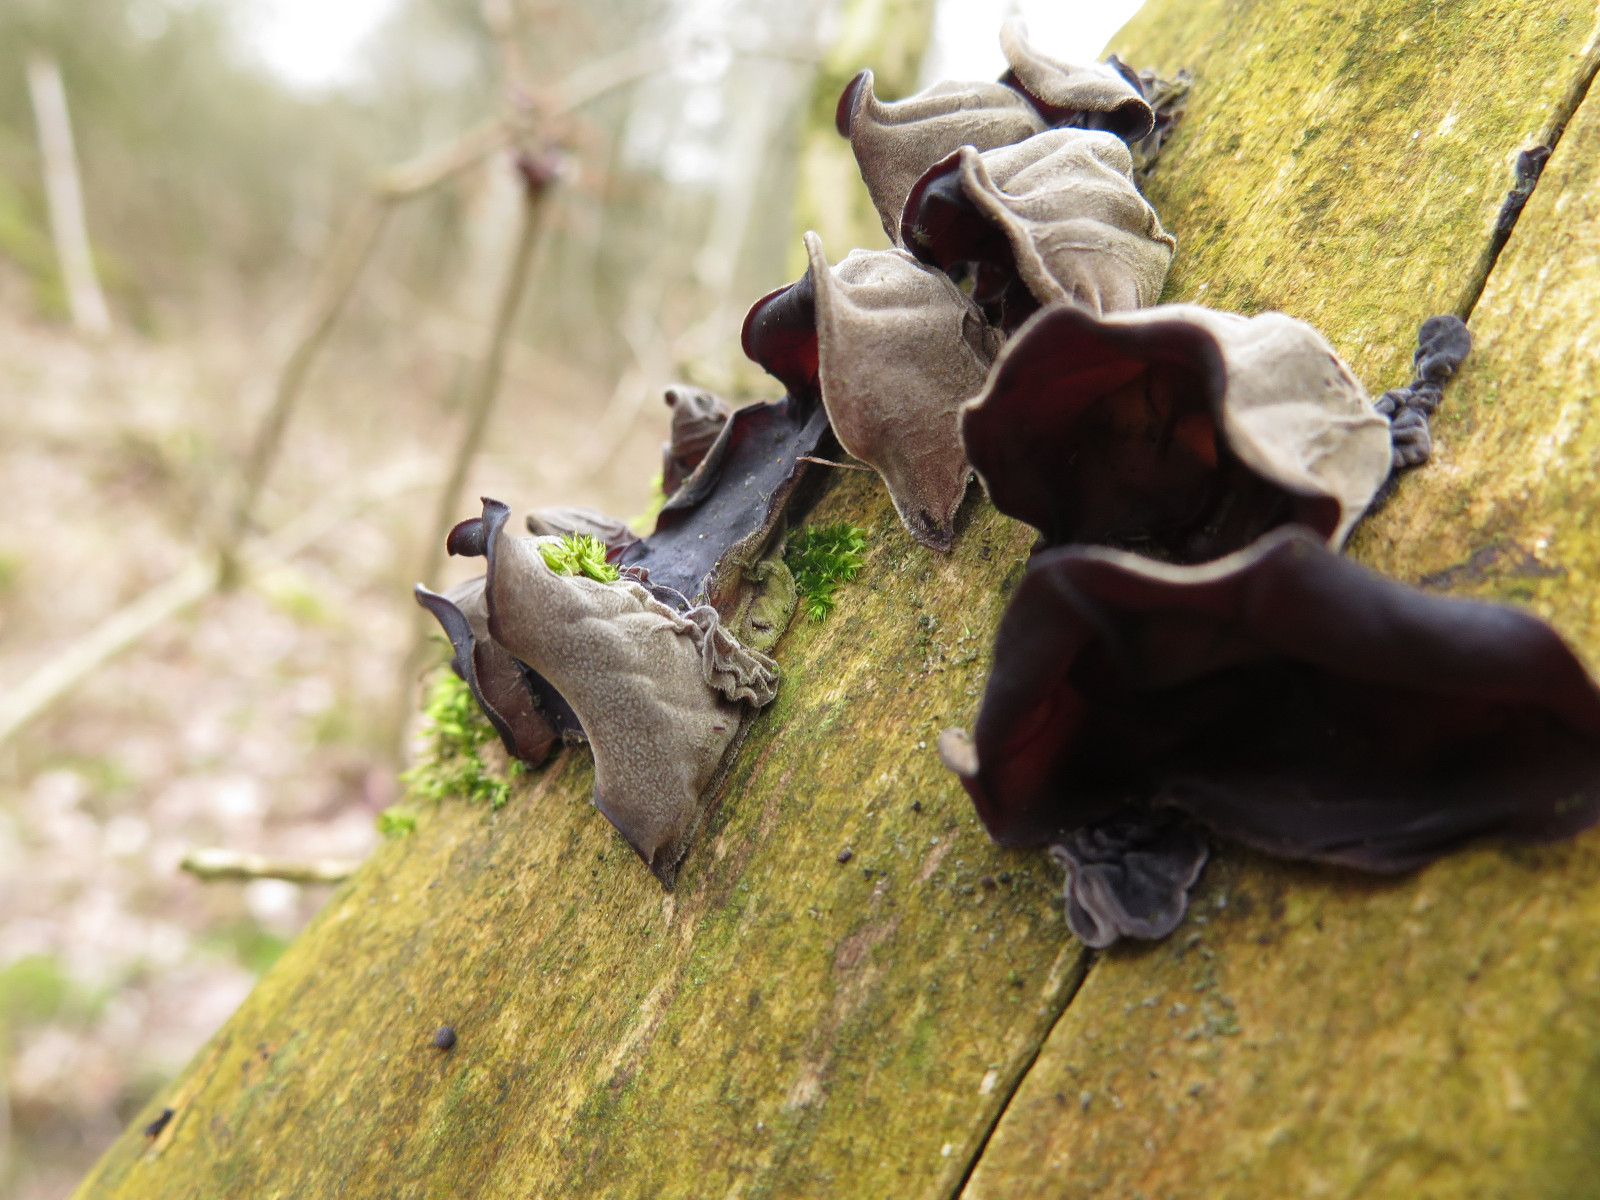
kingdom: Fungi
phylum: Basidiomycota
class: Agaricomycetes
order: Auriculariales
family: Auriculariaceae
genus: Auricularia
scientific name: Auricularia auricula-judae
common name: almindelig judasøre
